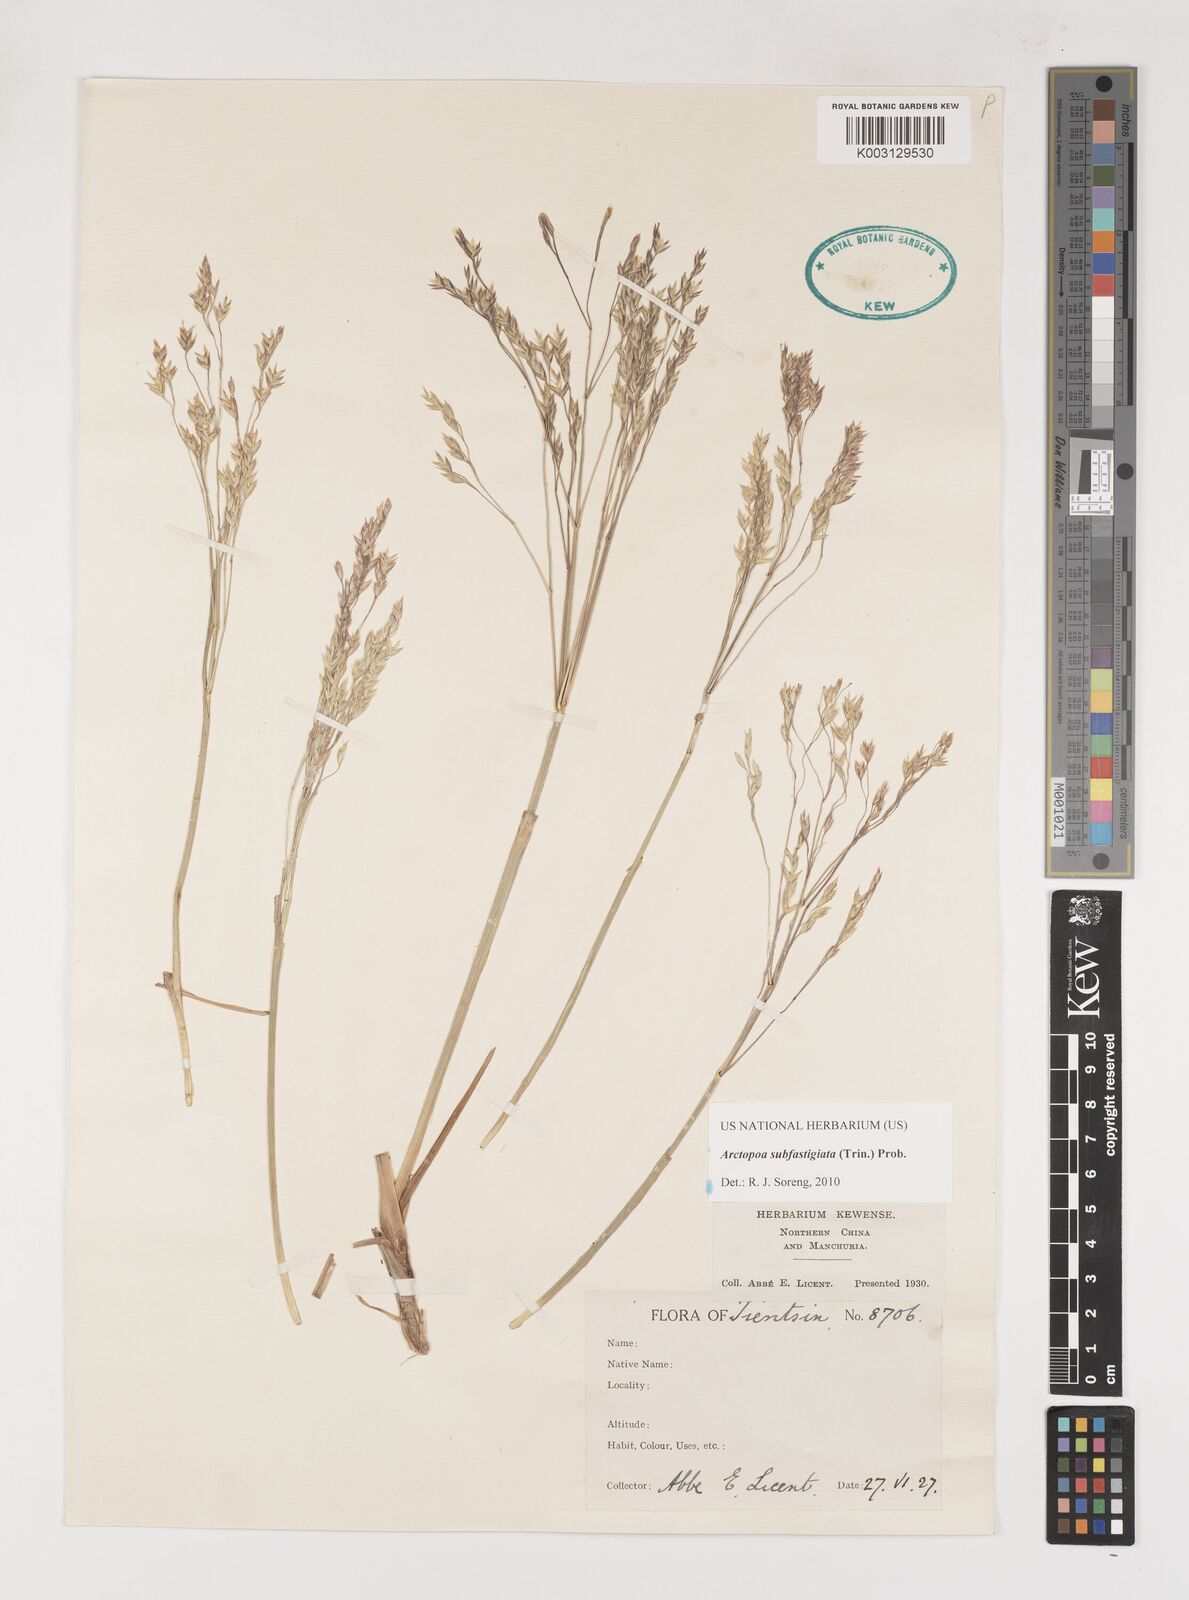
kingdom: Plantae
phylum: Tracheophyta
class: Liliopsida
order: Poales
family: Poaceae
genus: Arctopoa
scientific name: Arctopoa subfastigiata
